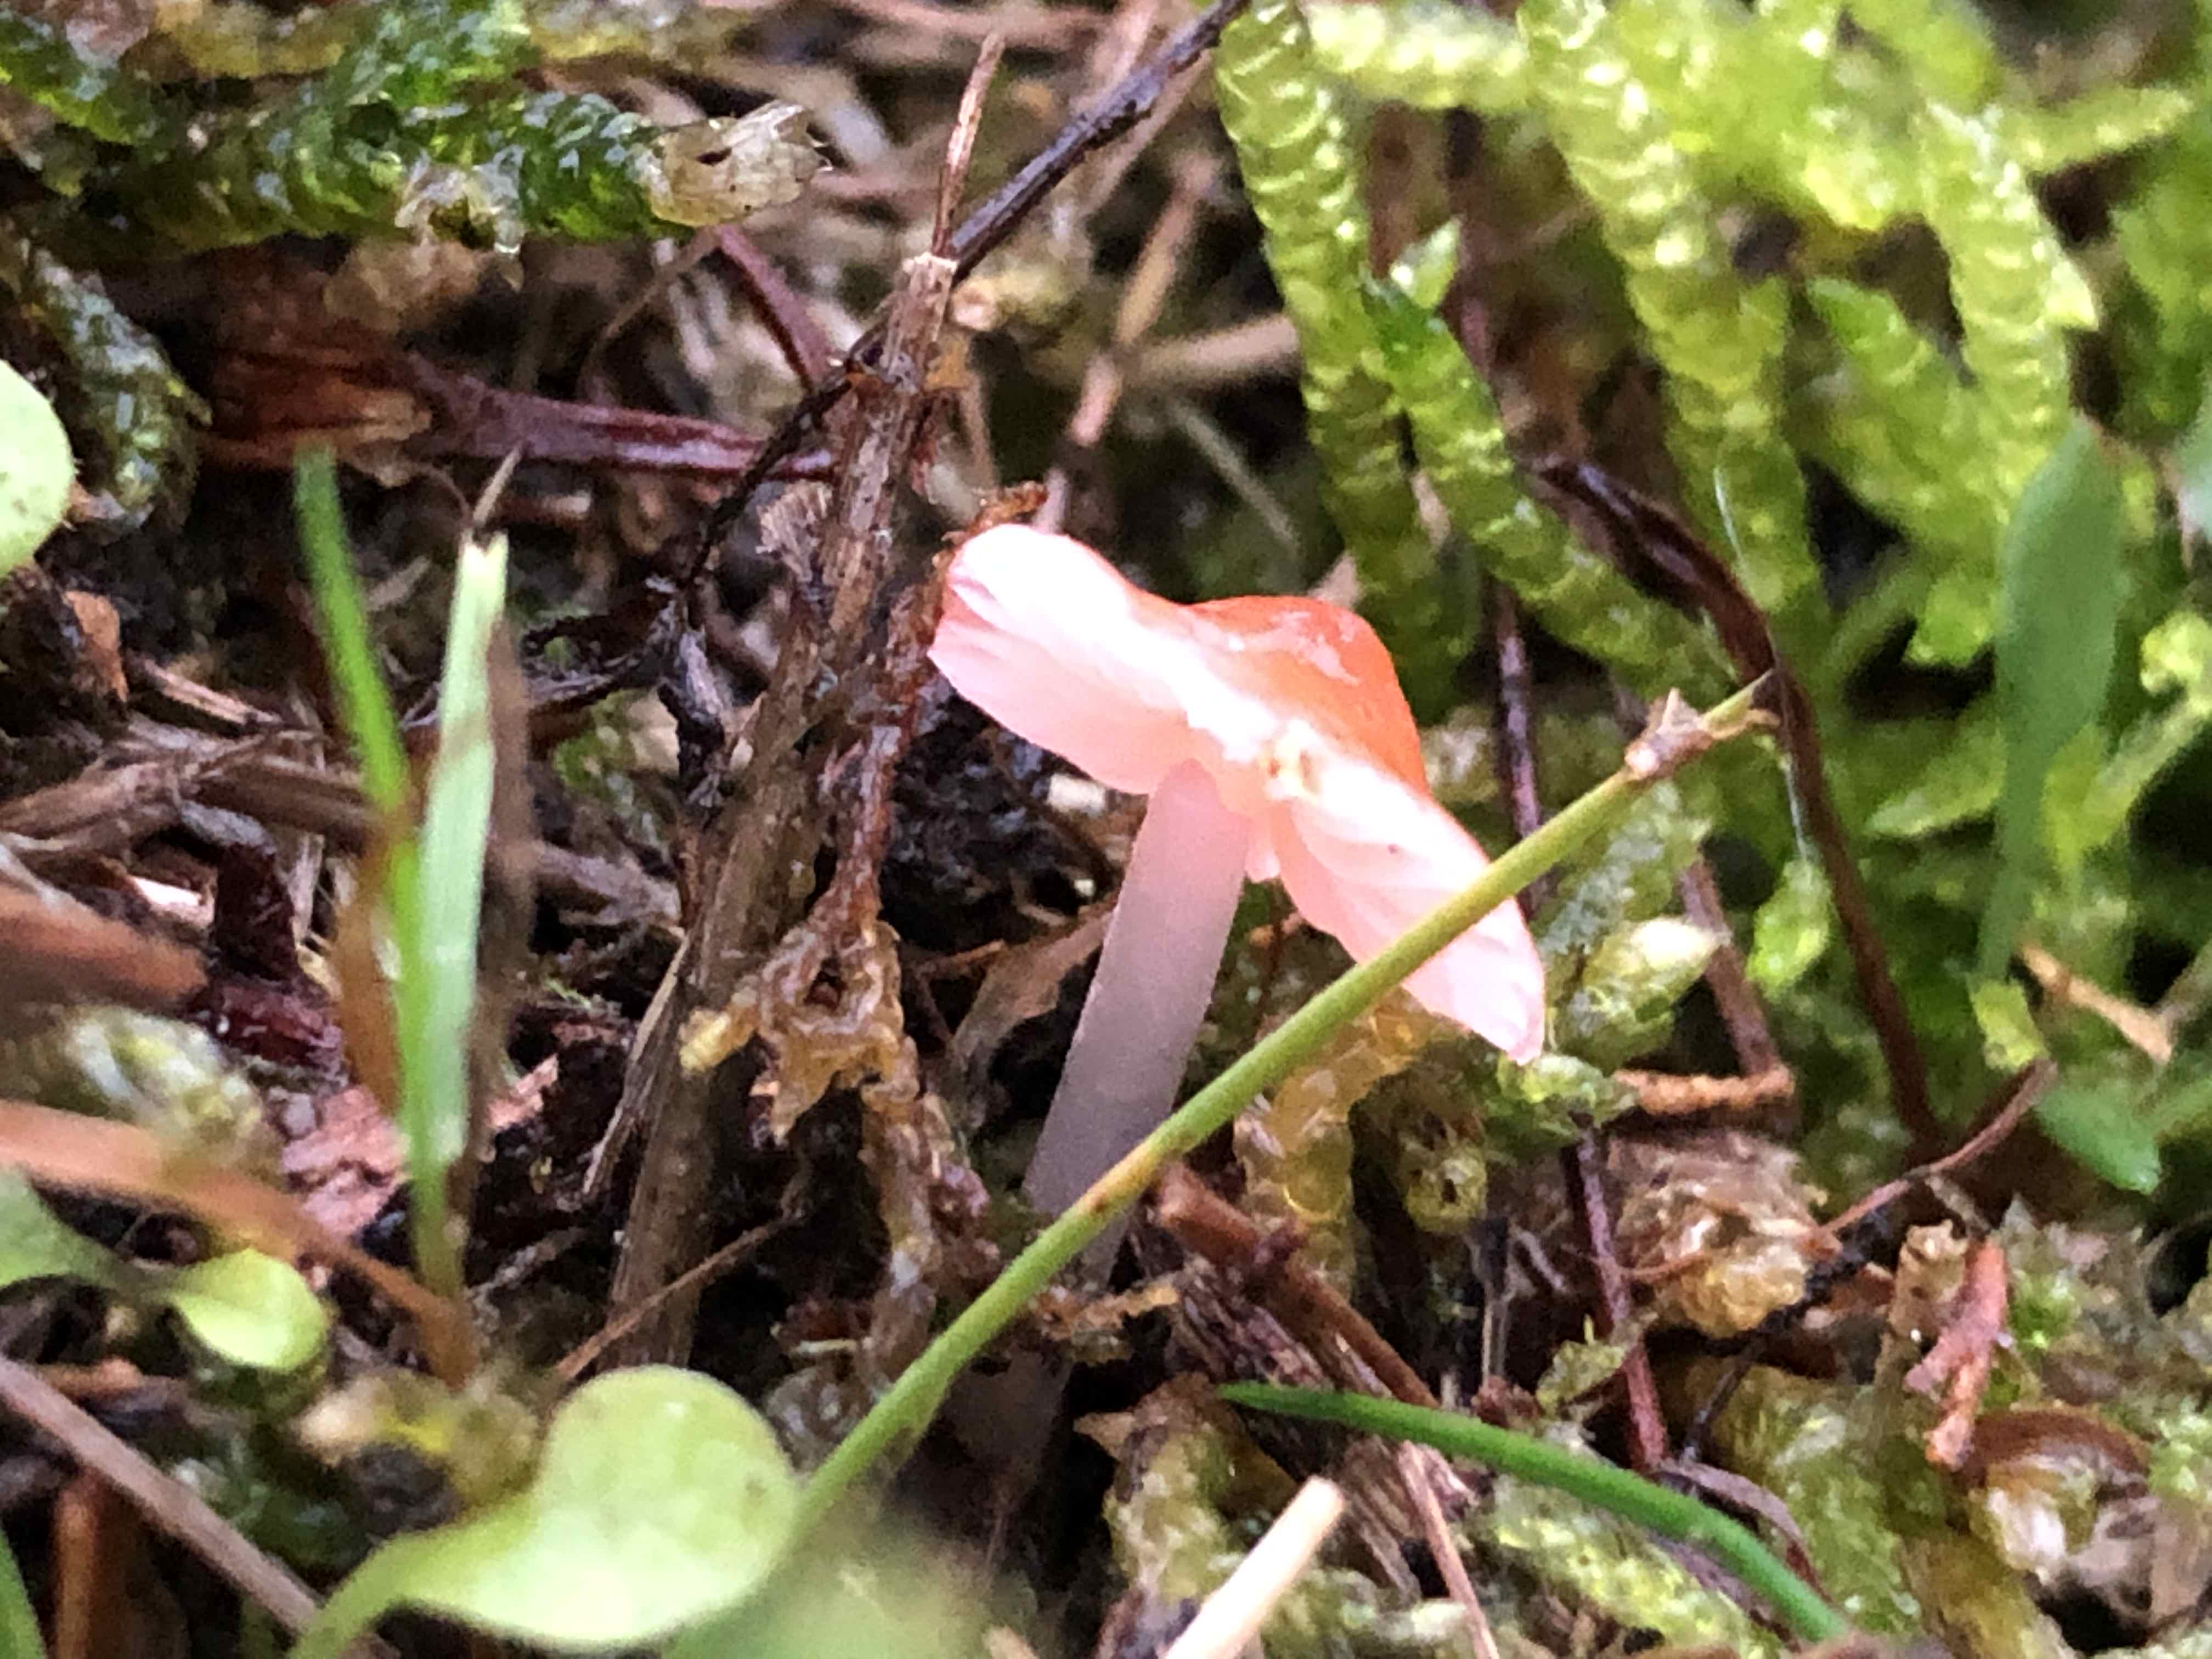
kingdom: Fungi
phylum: Basidiomycota
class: Agaricomycetes
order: Agaricales
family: Mycenaceae
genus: Atheniella
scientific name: Atheniella adonis
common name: rønnerød huesvamp
